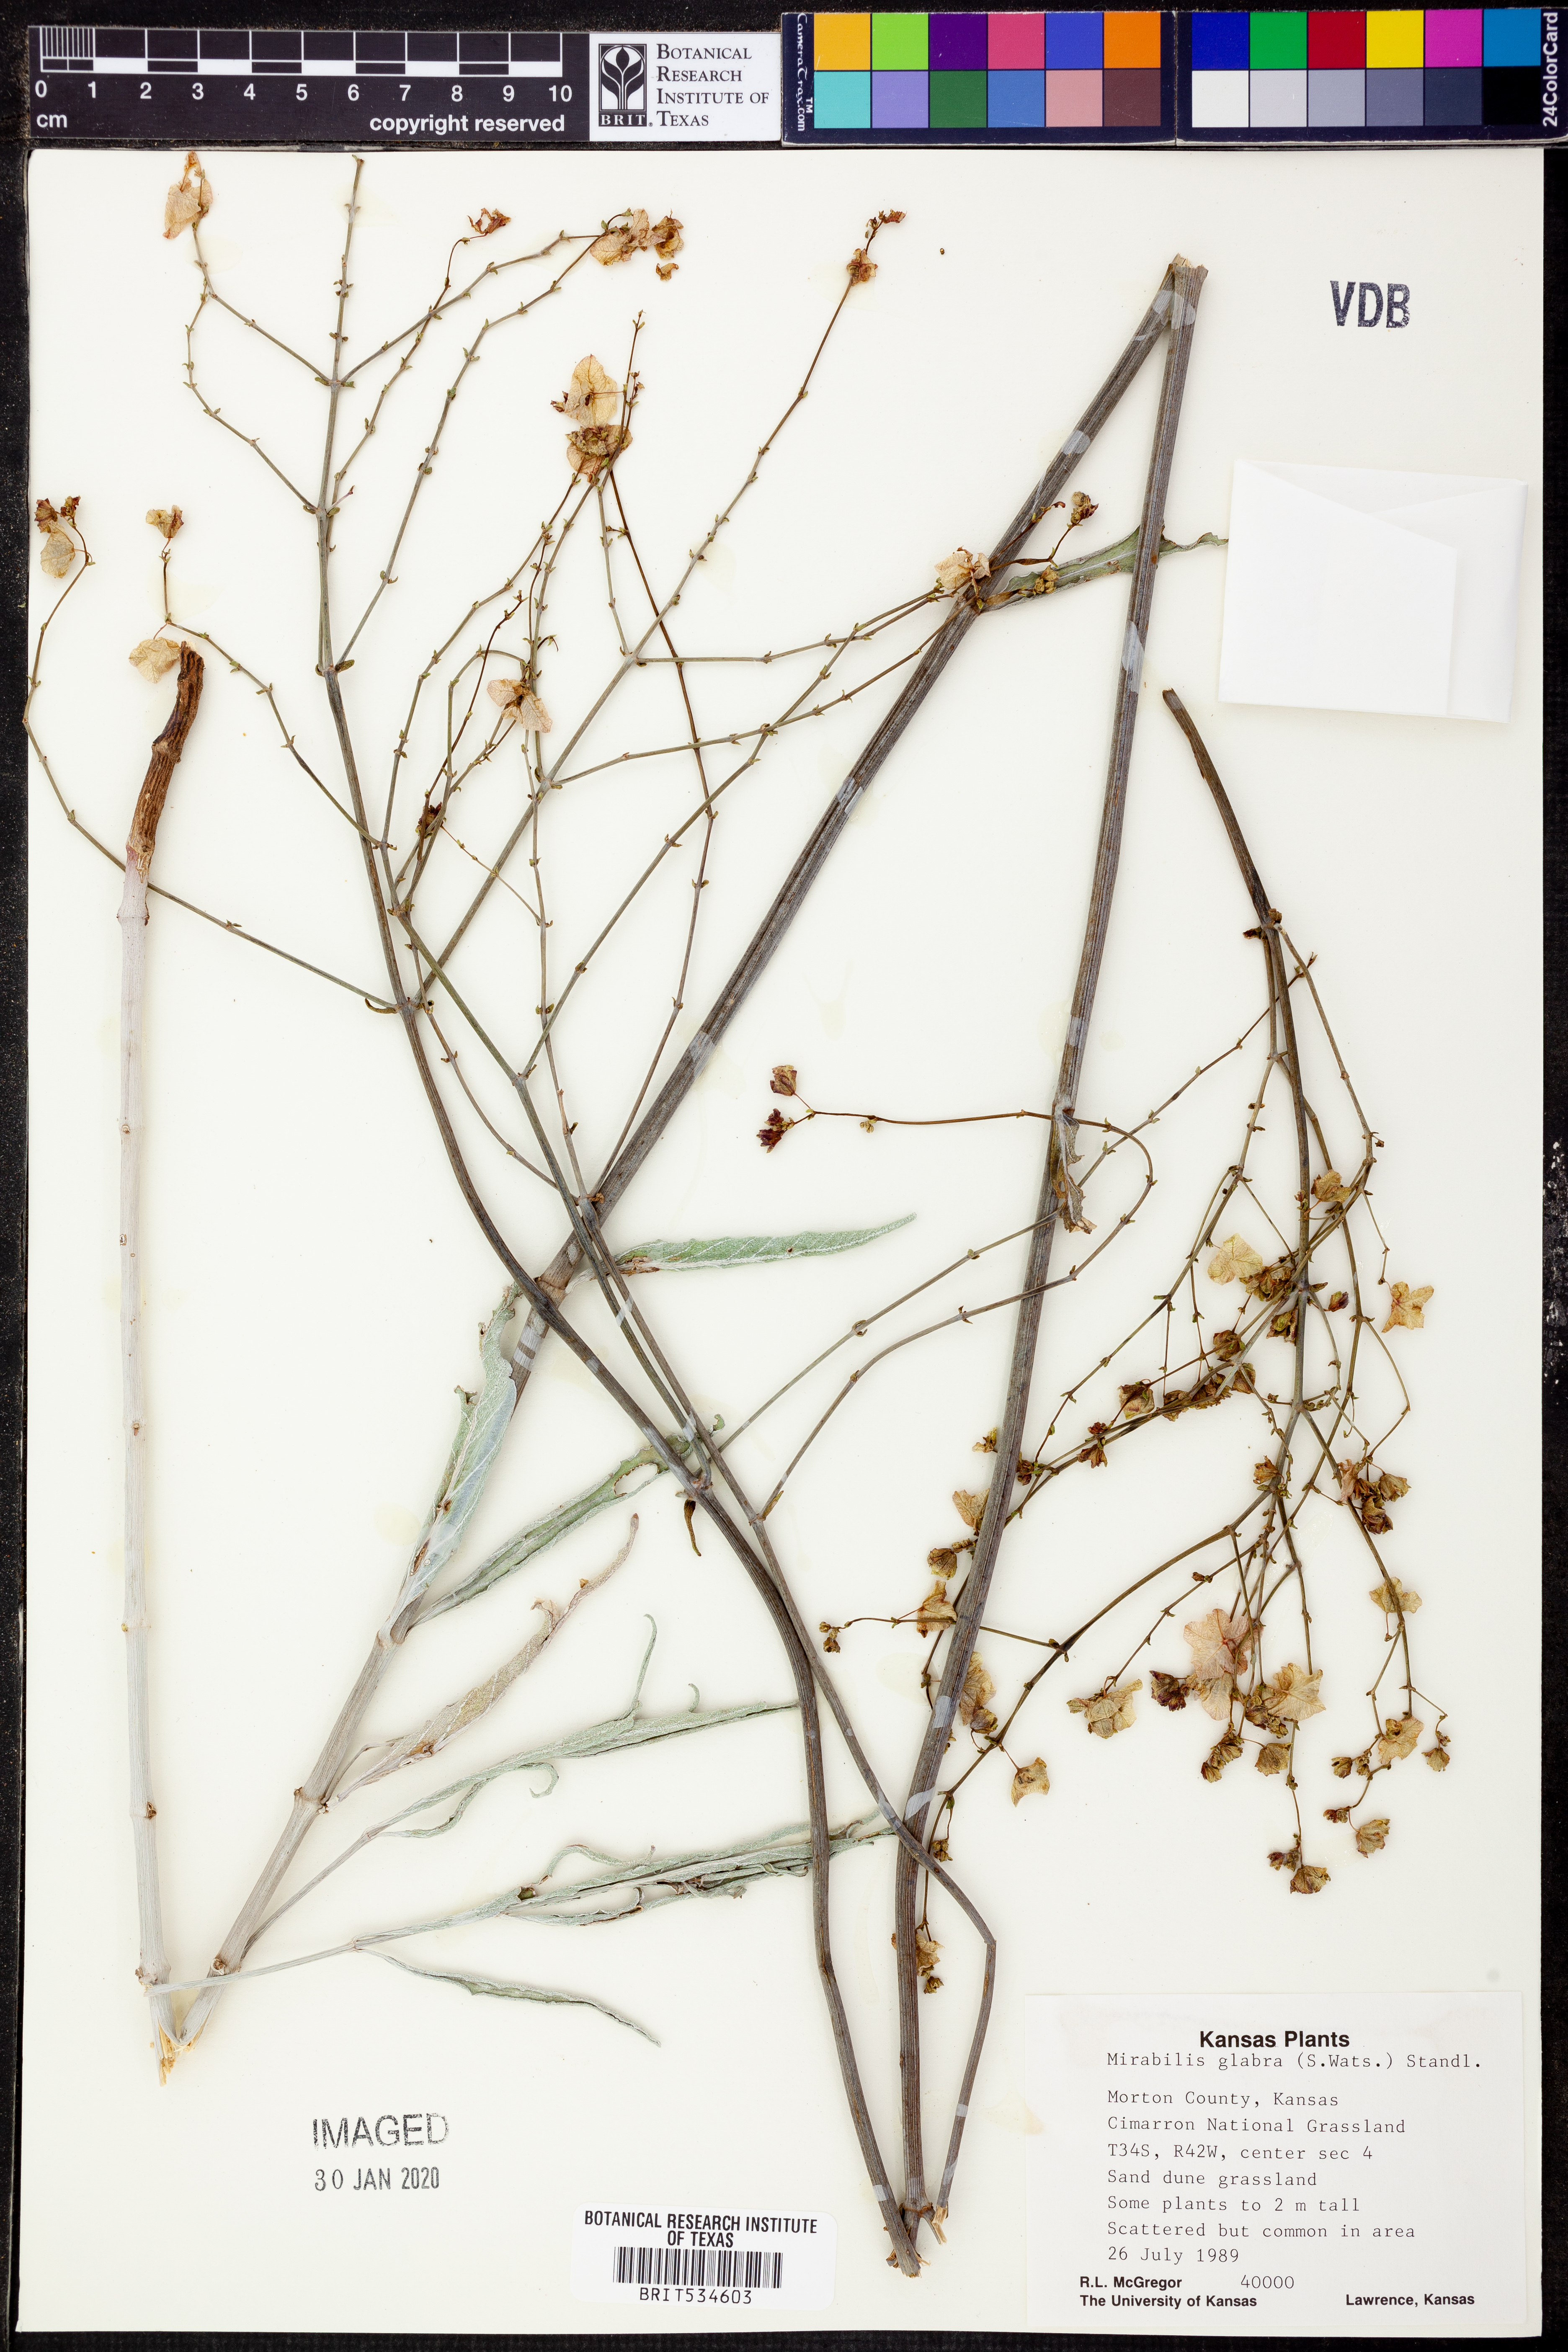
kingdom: Plantae
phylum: Tracheophyta
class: Magnoliopsida
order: Caryophyllales
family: Nyctaginaceae
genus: Mirabilis
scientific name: Mirabilis glabra
